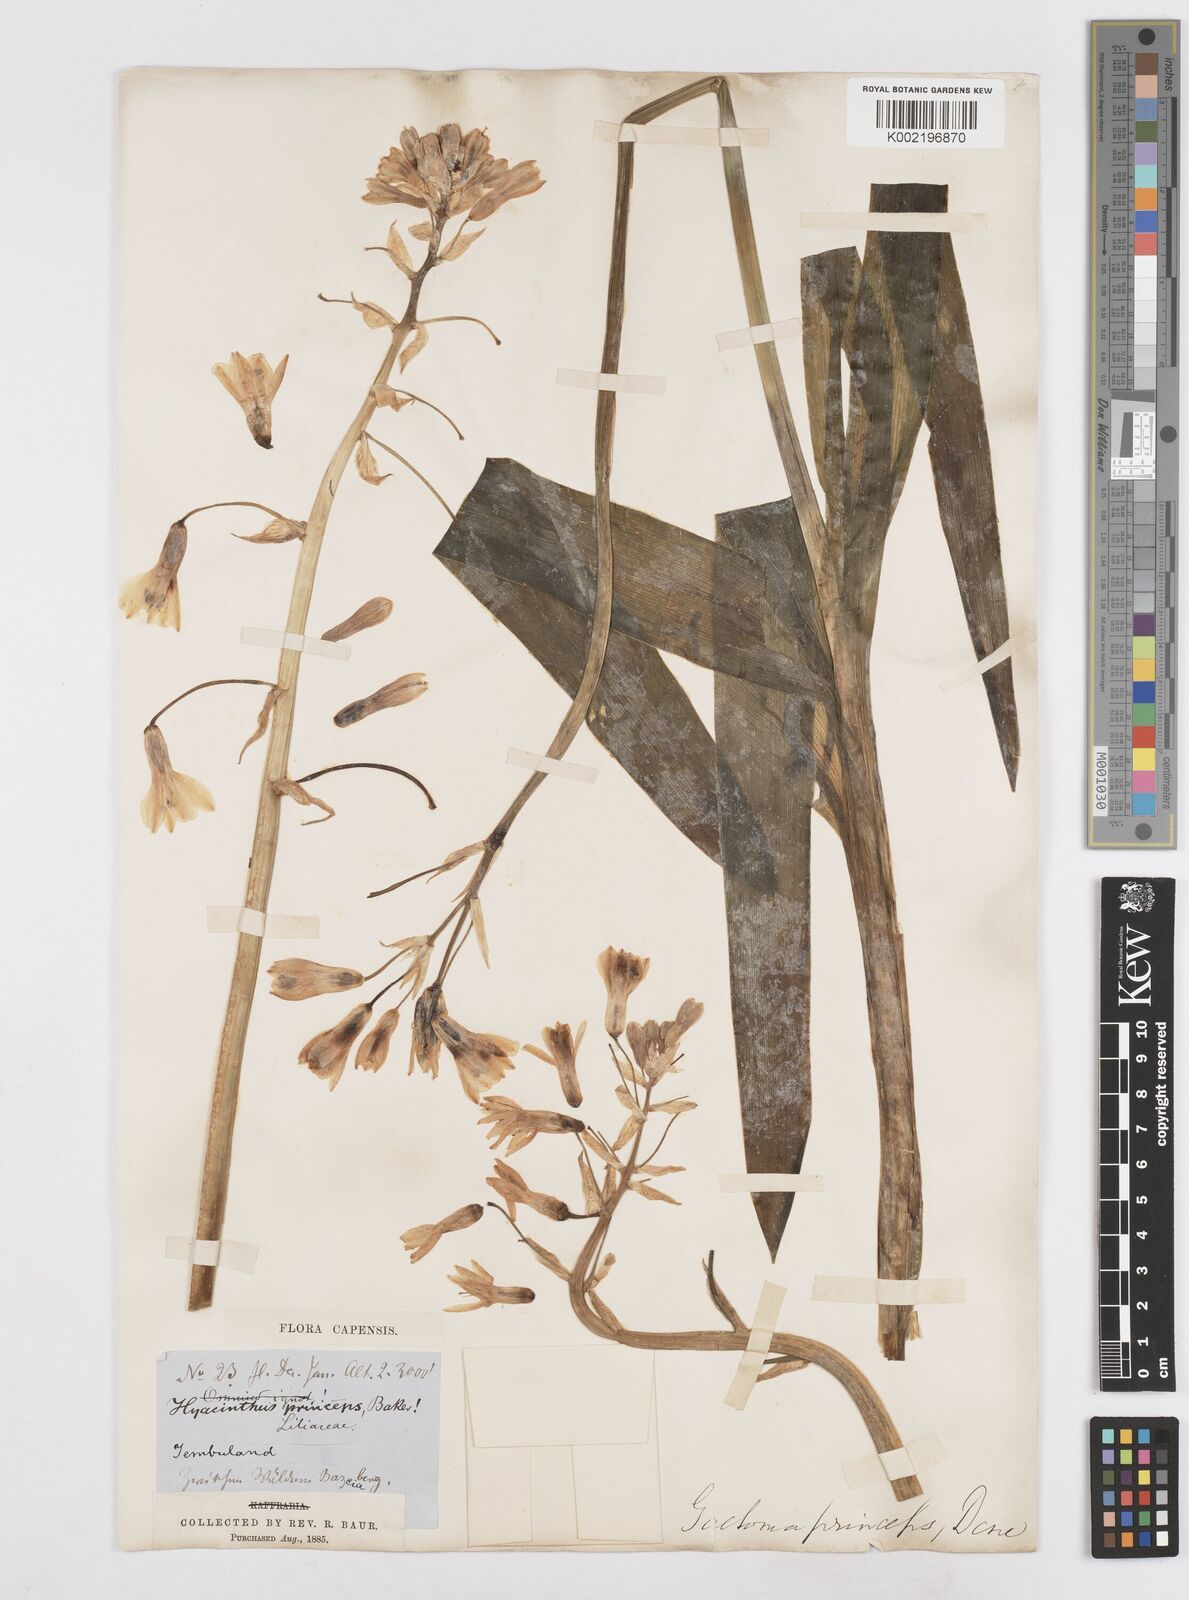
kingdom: Plantae
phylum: Tracheophyta
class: Liliopsida
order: Asparagales
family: Asparagaceae
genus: Ornithogalum
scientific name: Ornithogalum princeps
